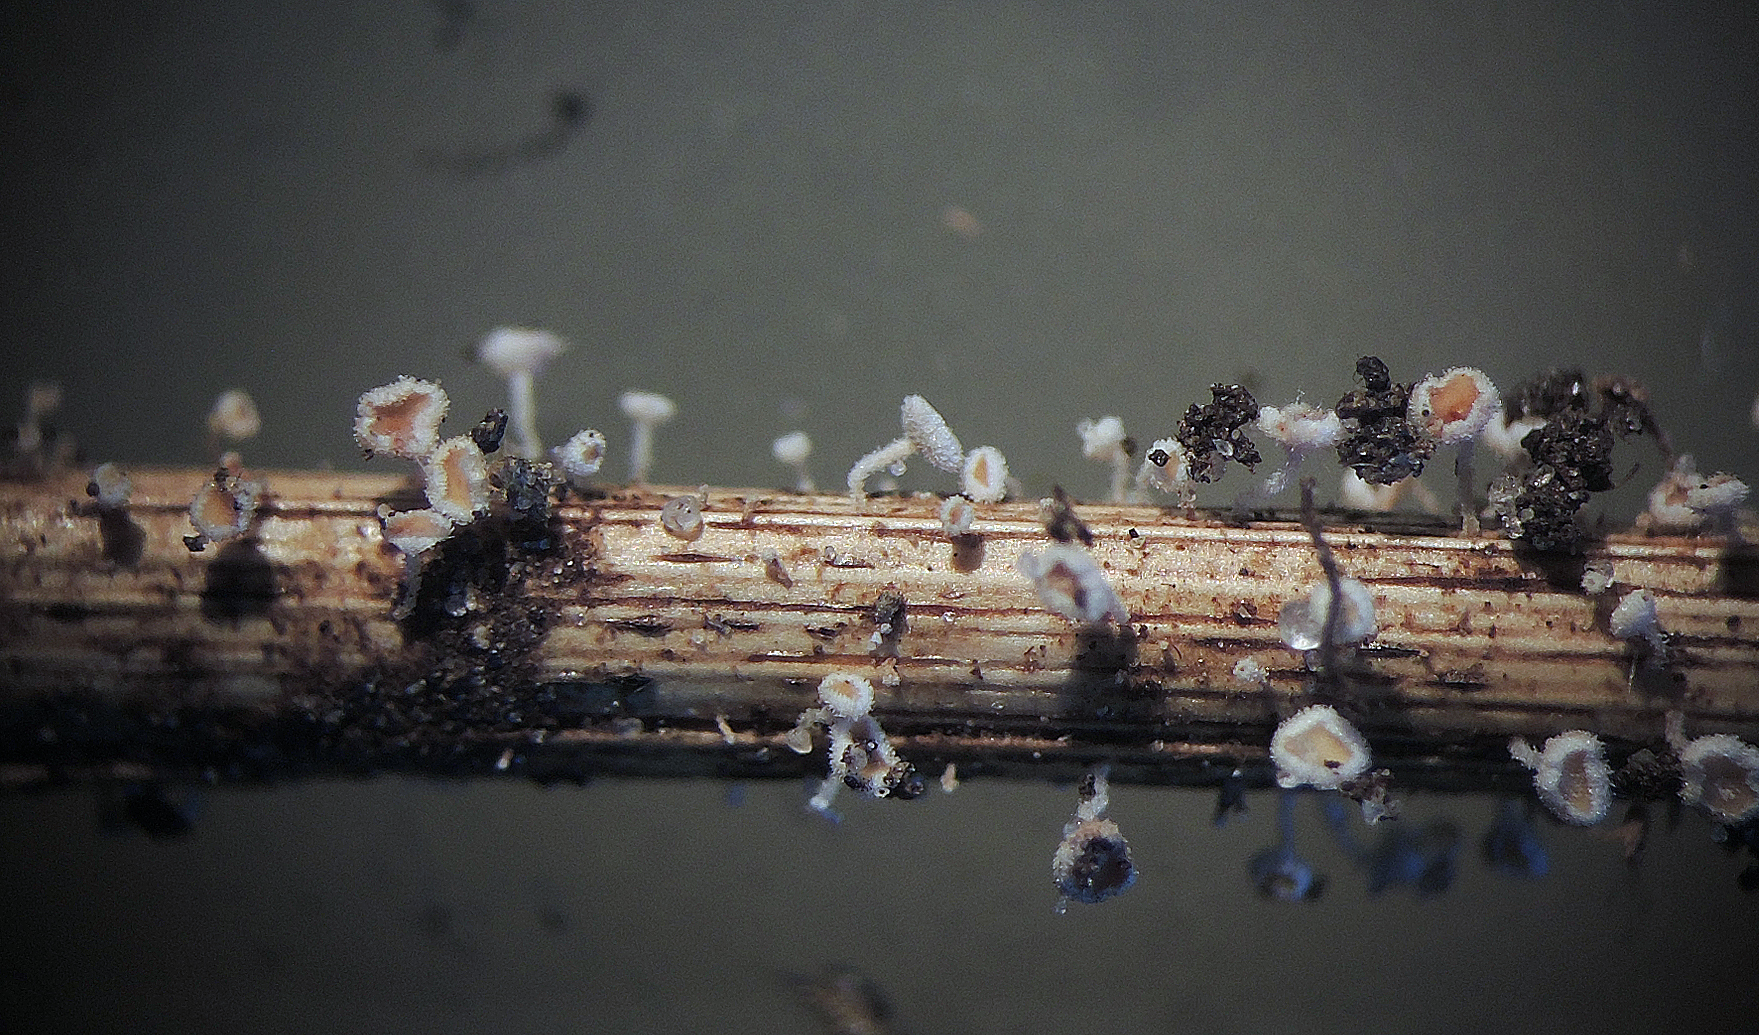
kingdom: Fungi
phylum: Ascomycota
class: Leotiomycetes
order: Helotiales
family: Lachnaceae
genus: Lachnum
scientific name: Lachnum tenuissimum
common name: spinkel frynseskive
